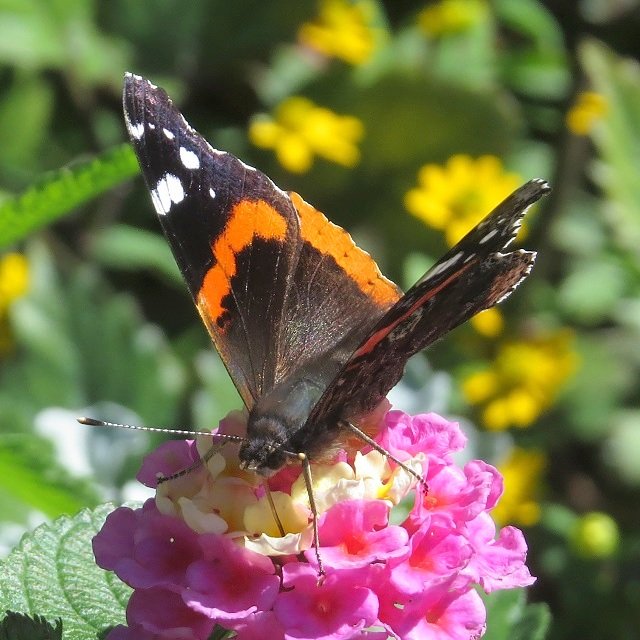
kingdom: Animalia
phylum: Arthropoda
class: Insecta
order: Lepidoptera
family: Nymphalidae
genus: Vanessa
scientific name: Vanessa atalanta
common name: Red Admiral
